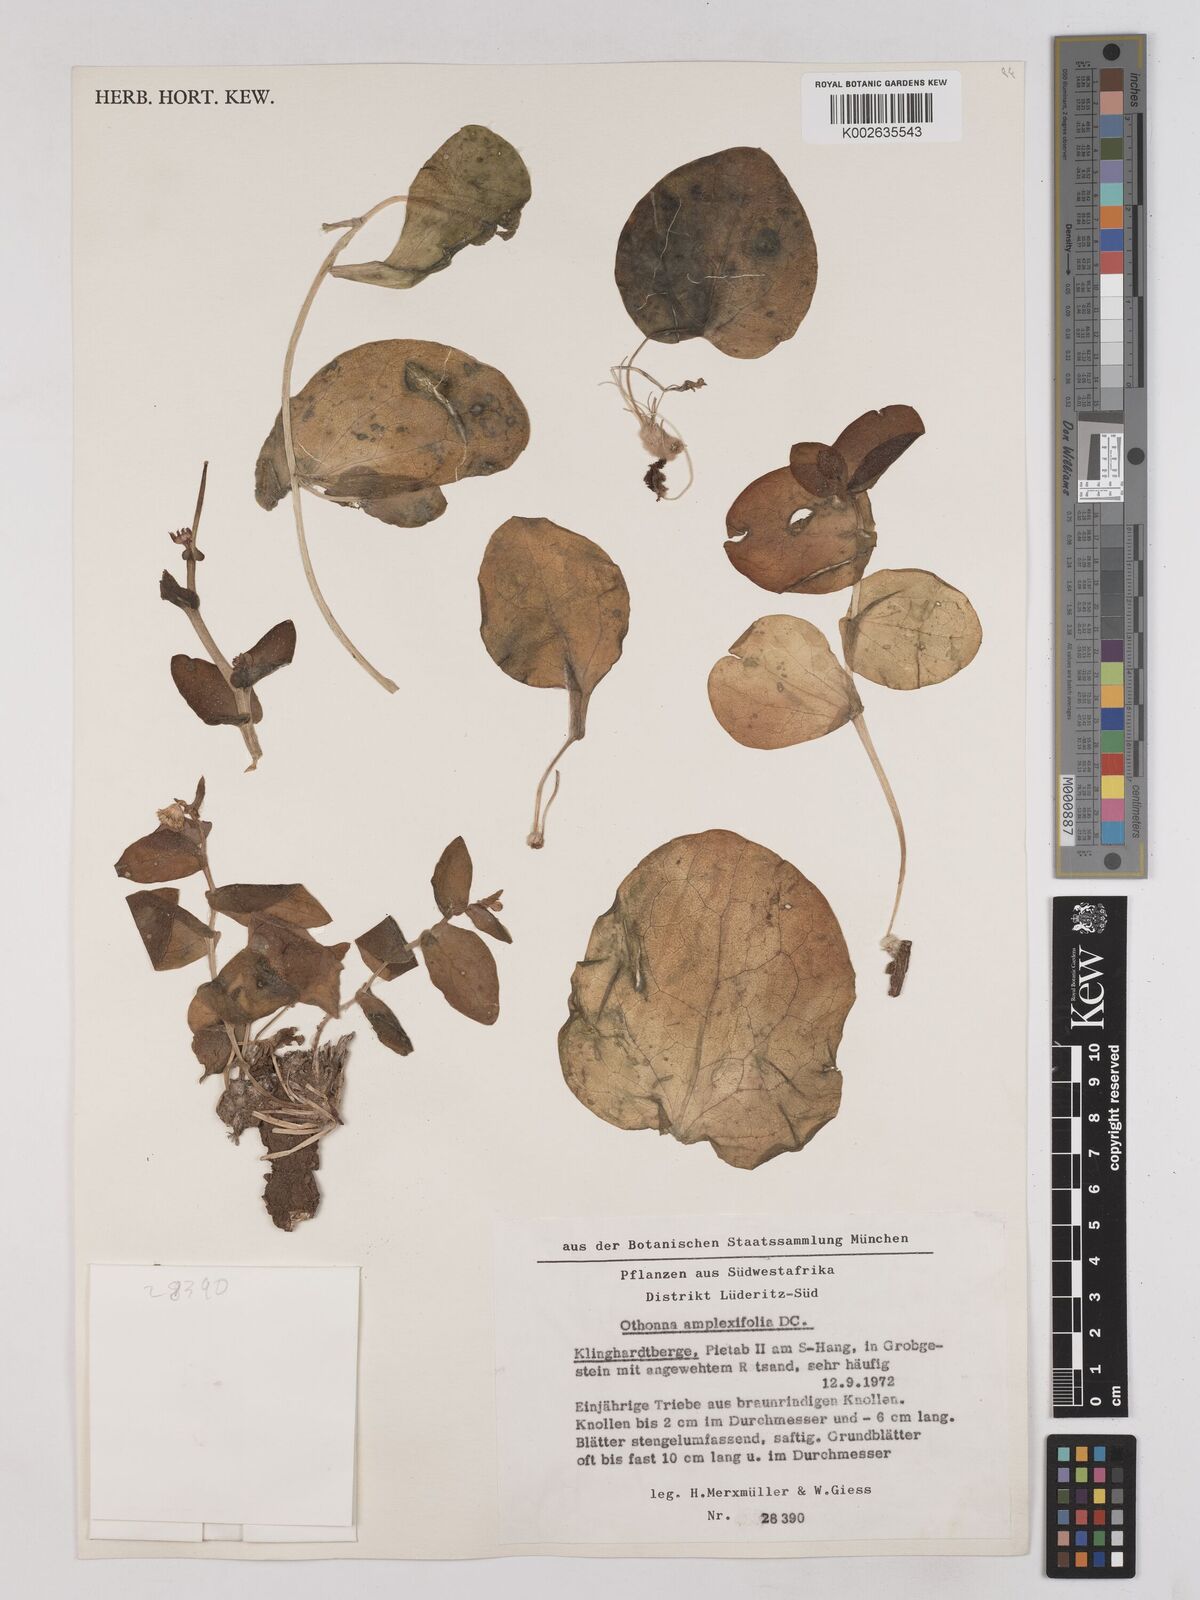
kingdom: Plantae
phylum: Tracheophyta
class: Magnoliopsida
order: Asterales
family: Asteraceae
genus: Othonna
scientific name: Othonna amplexifolia
